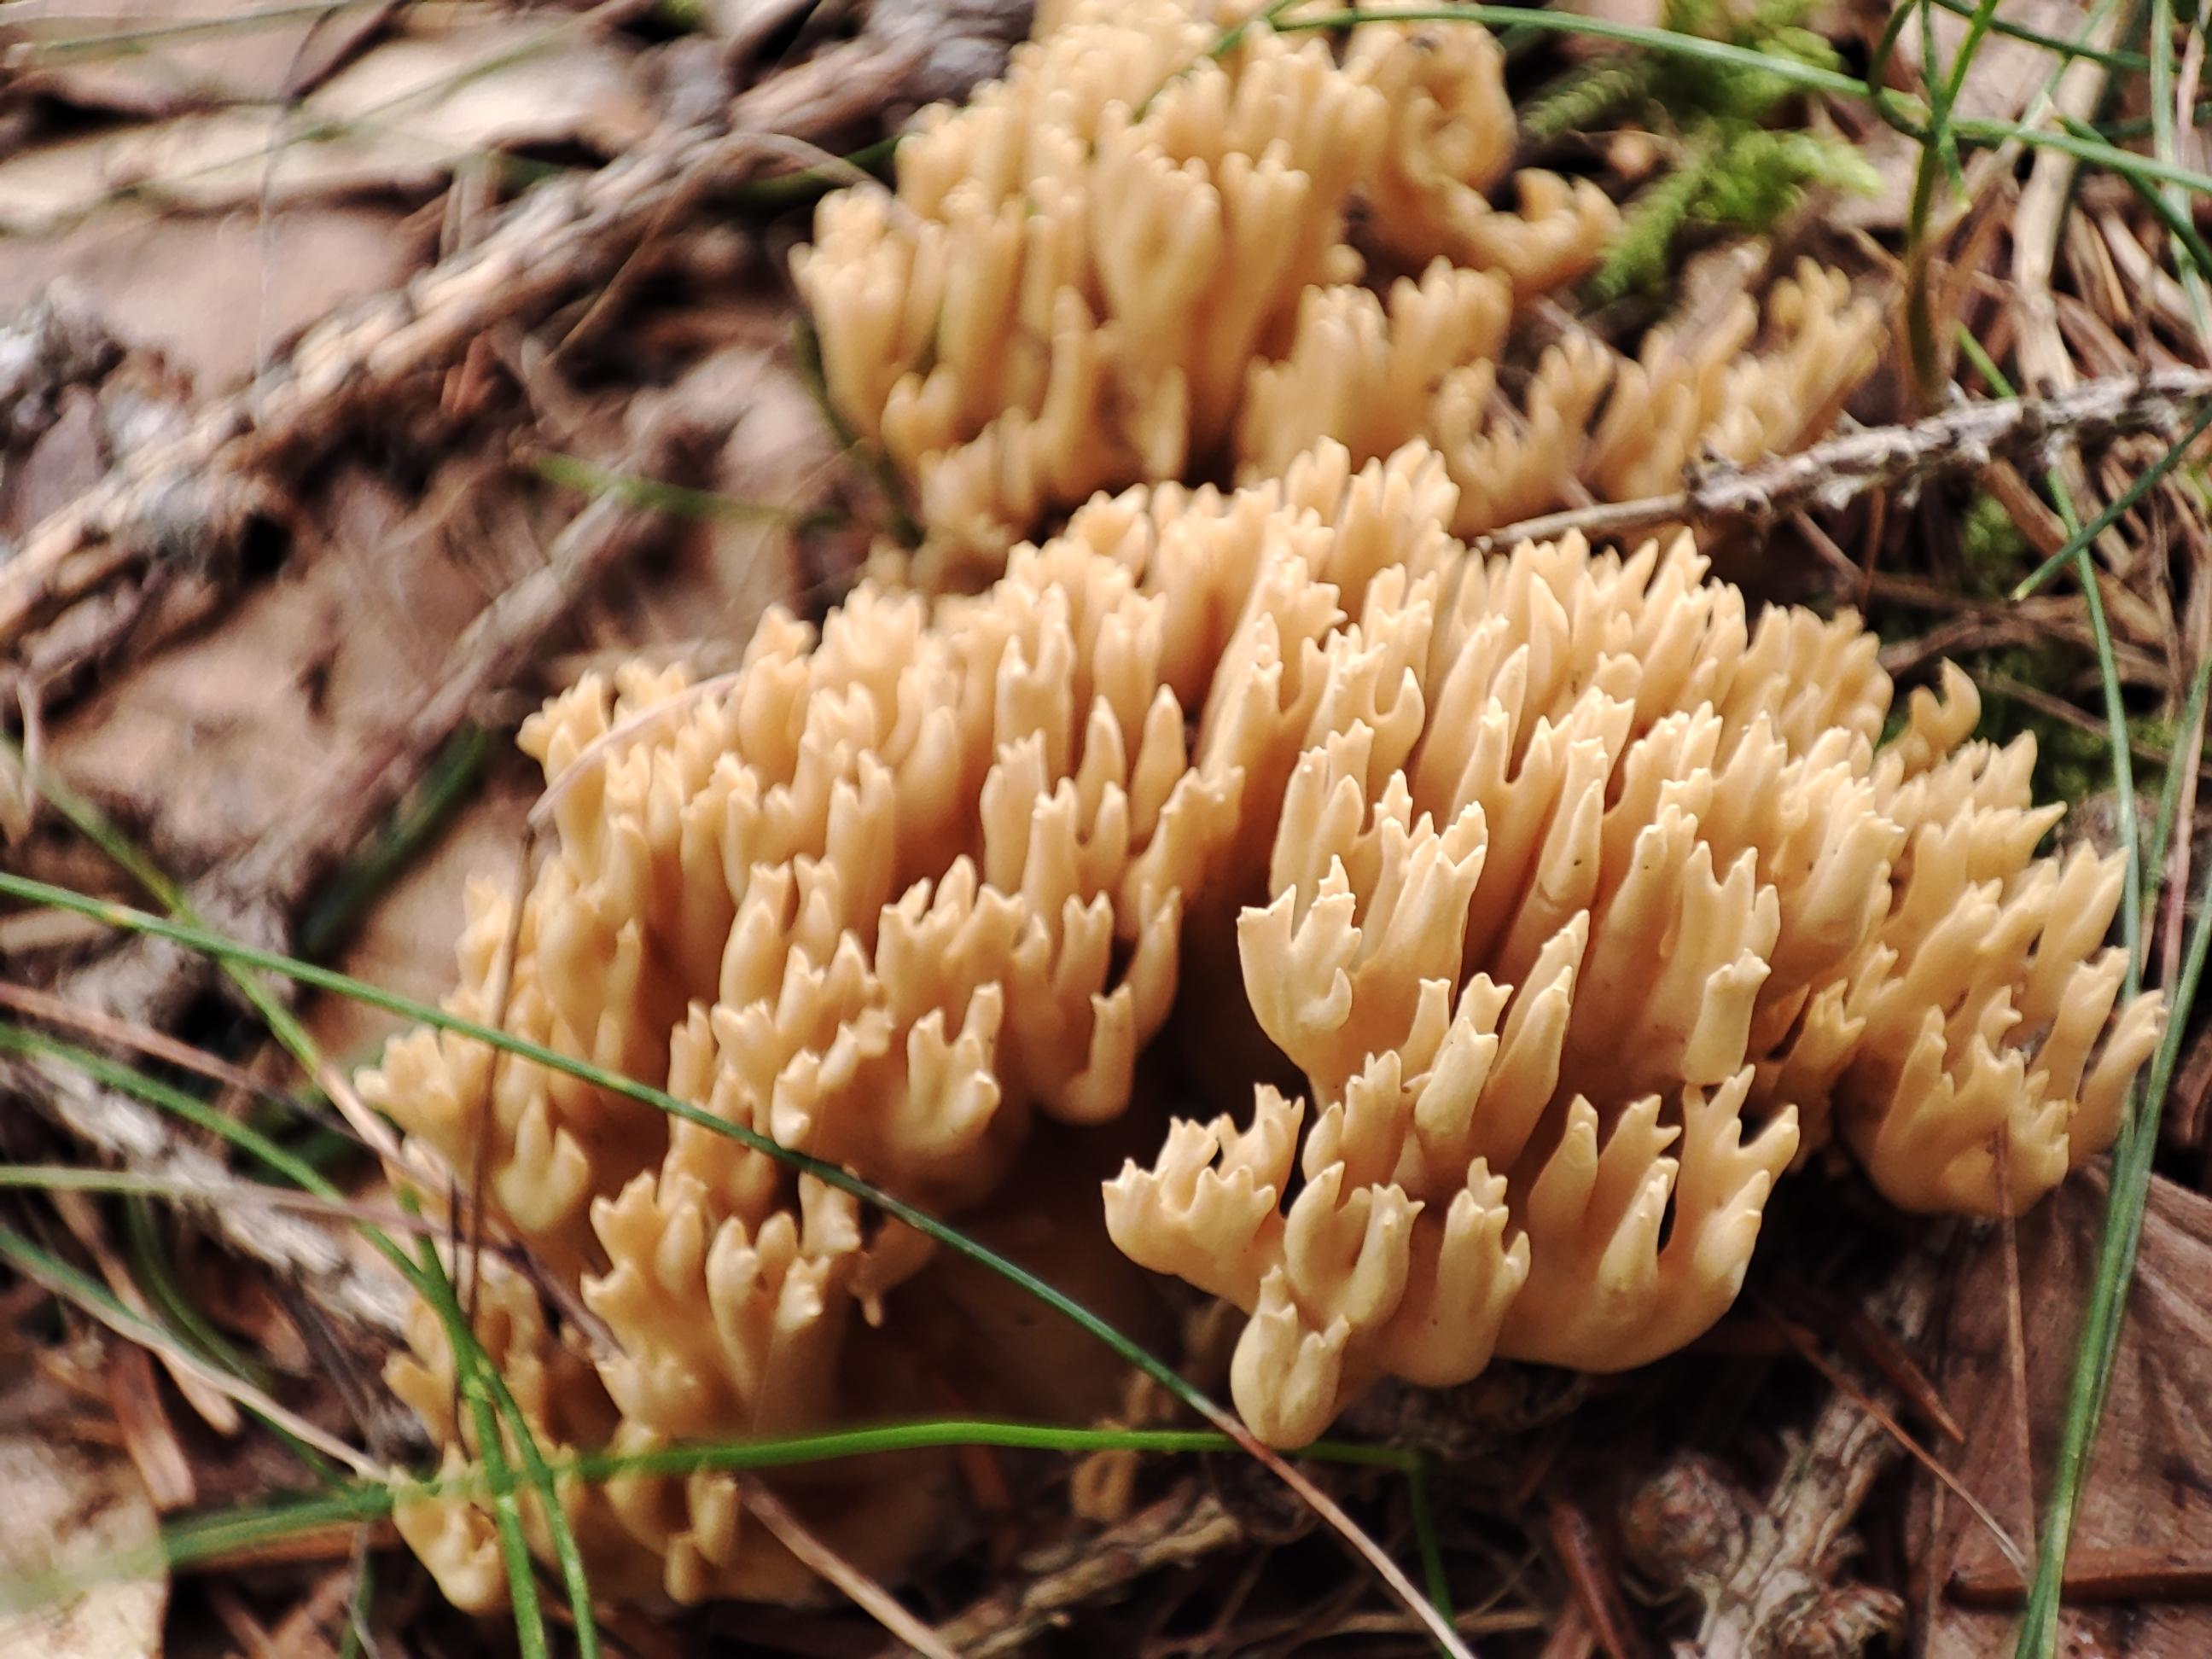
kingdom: Fungi
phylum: Basidiomycota
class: Agaricomycetes
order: Gomphales
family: Gomphaceae
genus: Phaeoclavulina
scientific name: Phaeoclavulina eumorpha
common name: gran-koralsvamp
